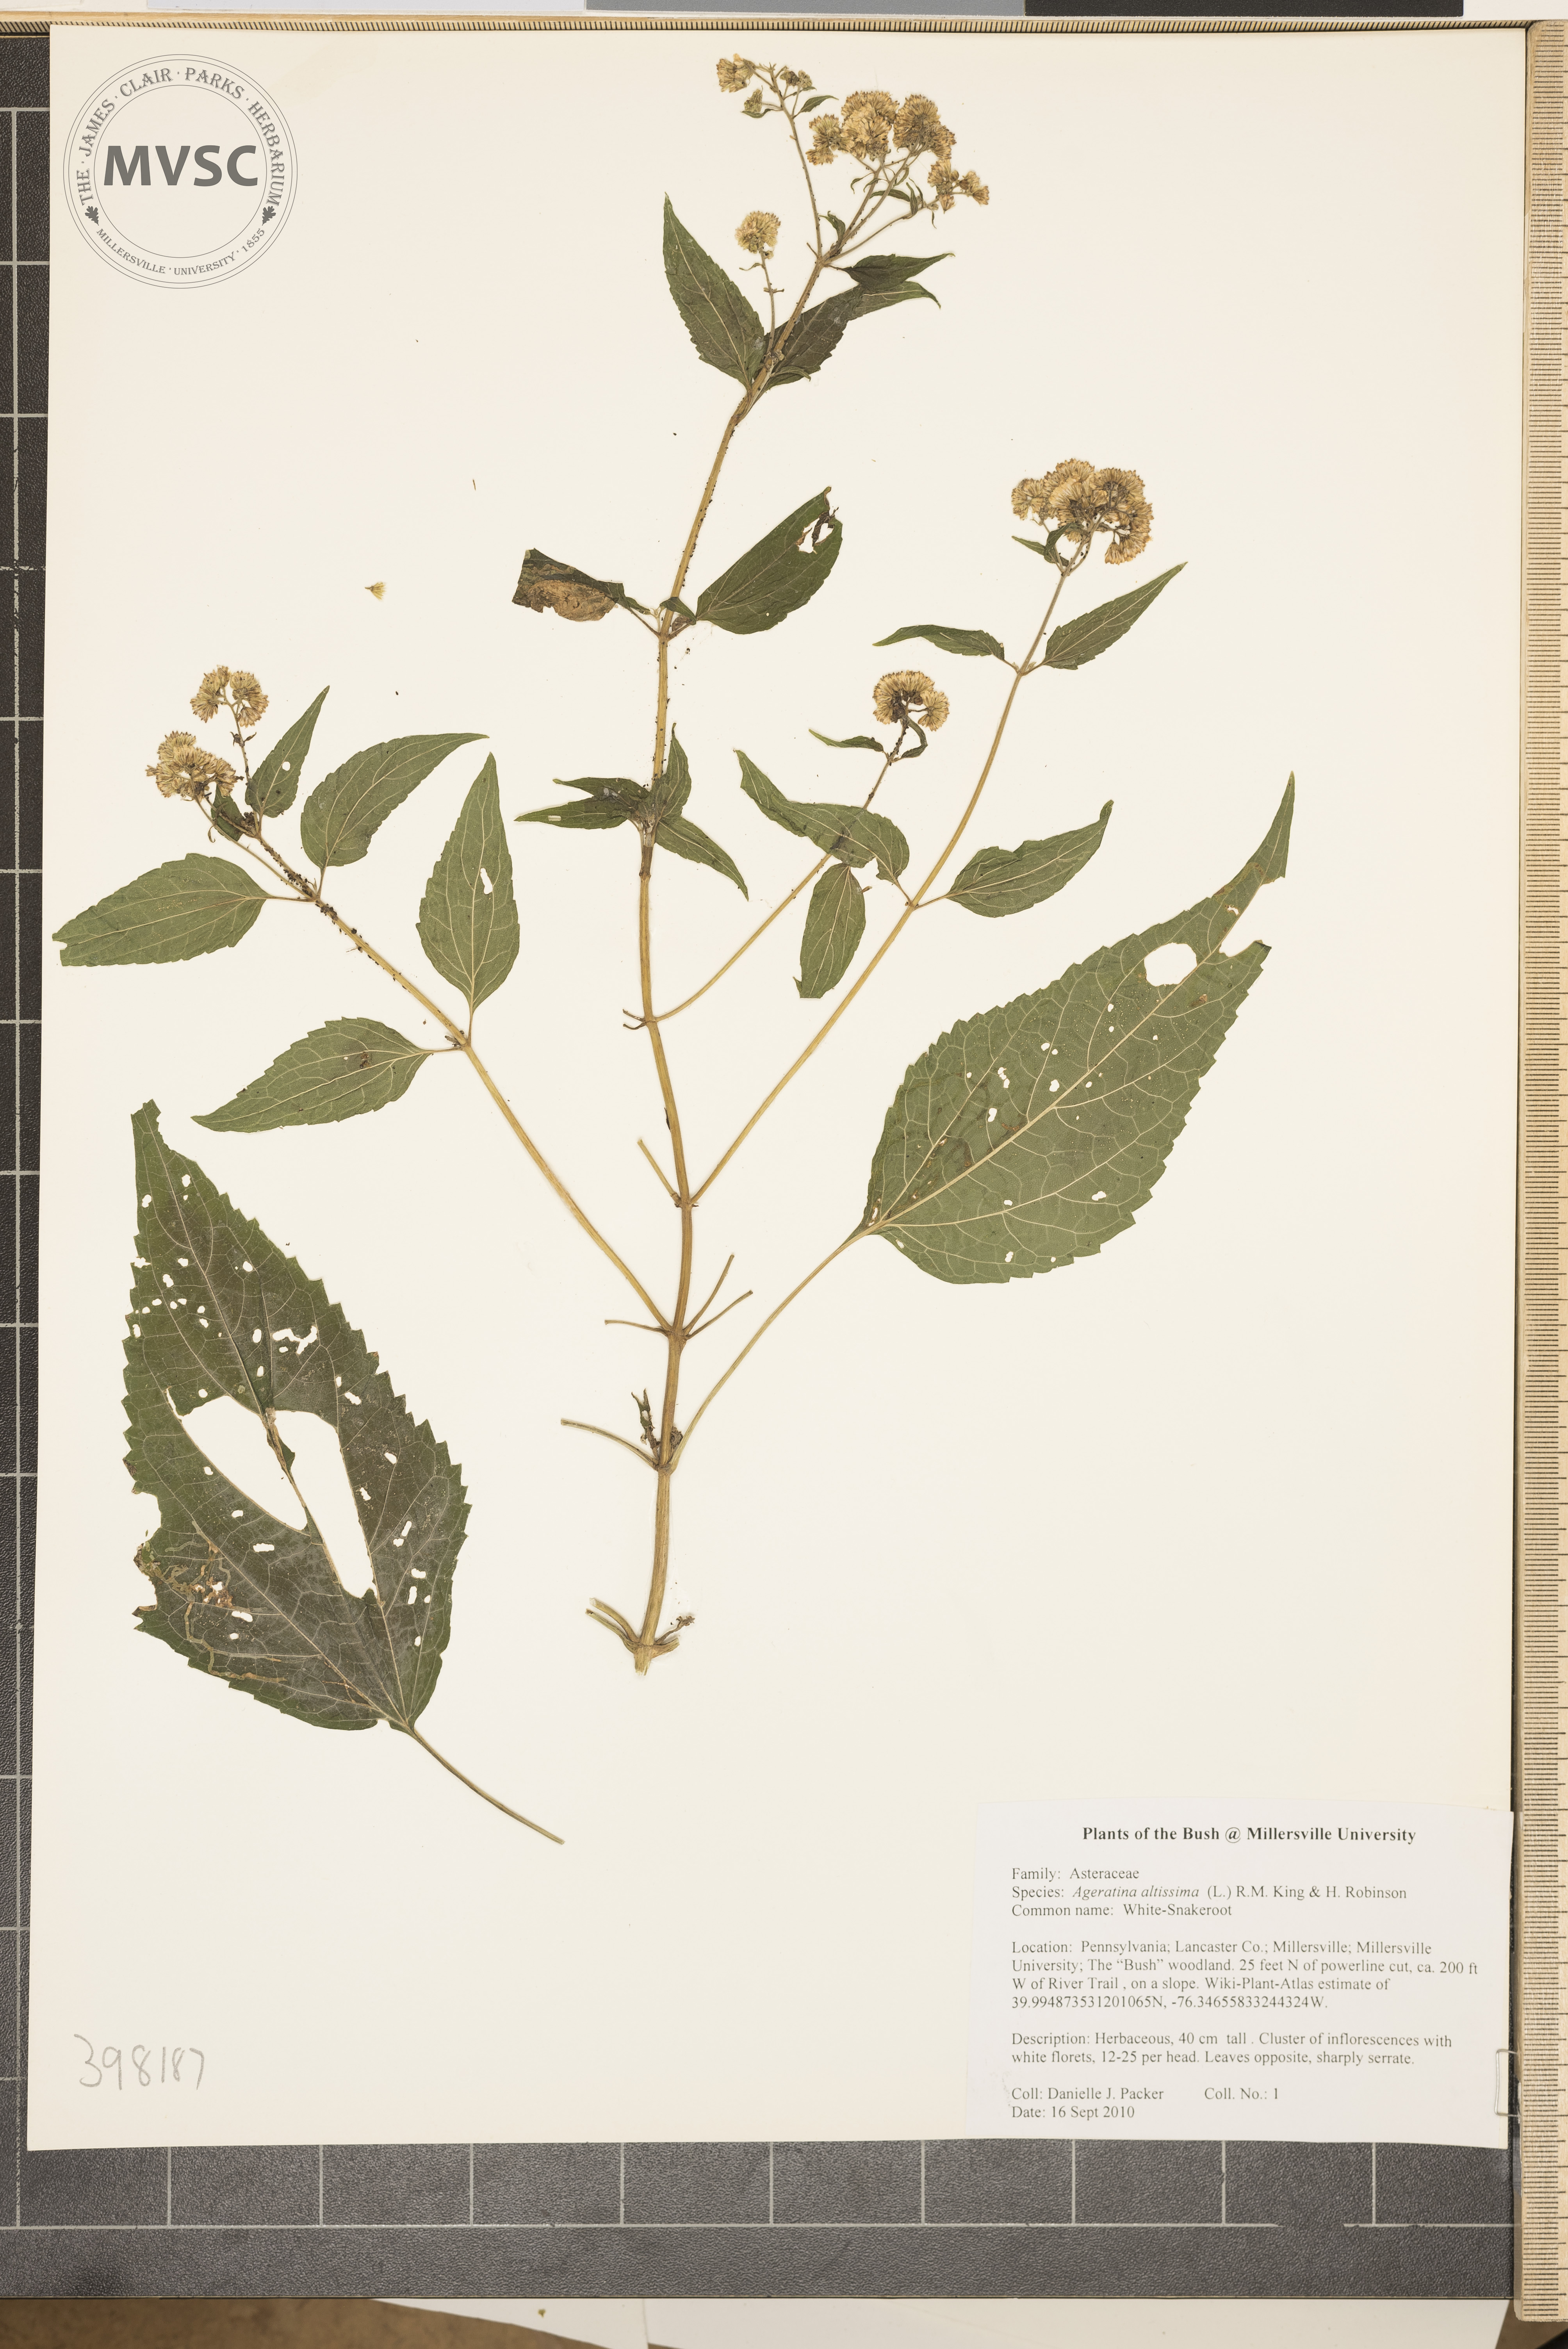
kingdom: Plantae
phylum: Tracheophyta
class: Magnoliopsida
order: Asterales
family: Asteraceae
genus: Ageratina
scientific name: Ageratina altissima
